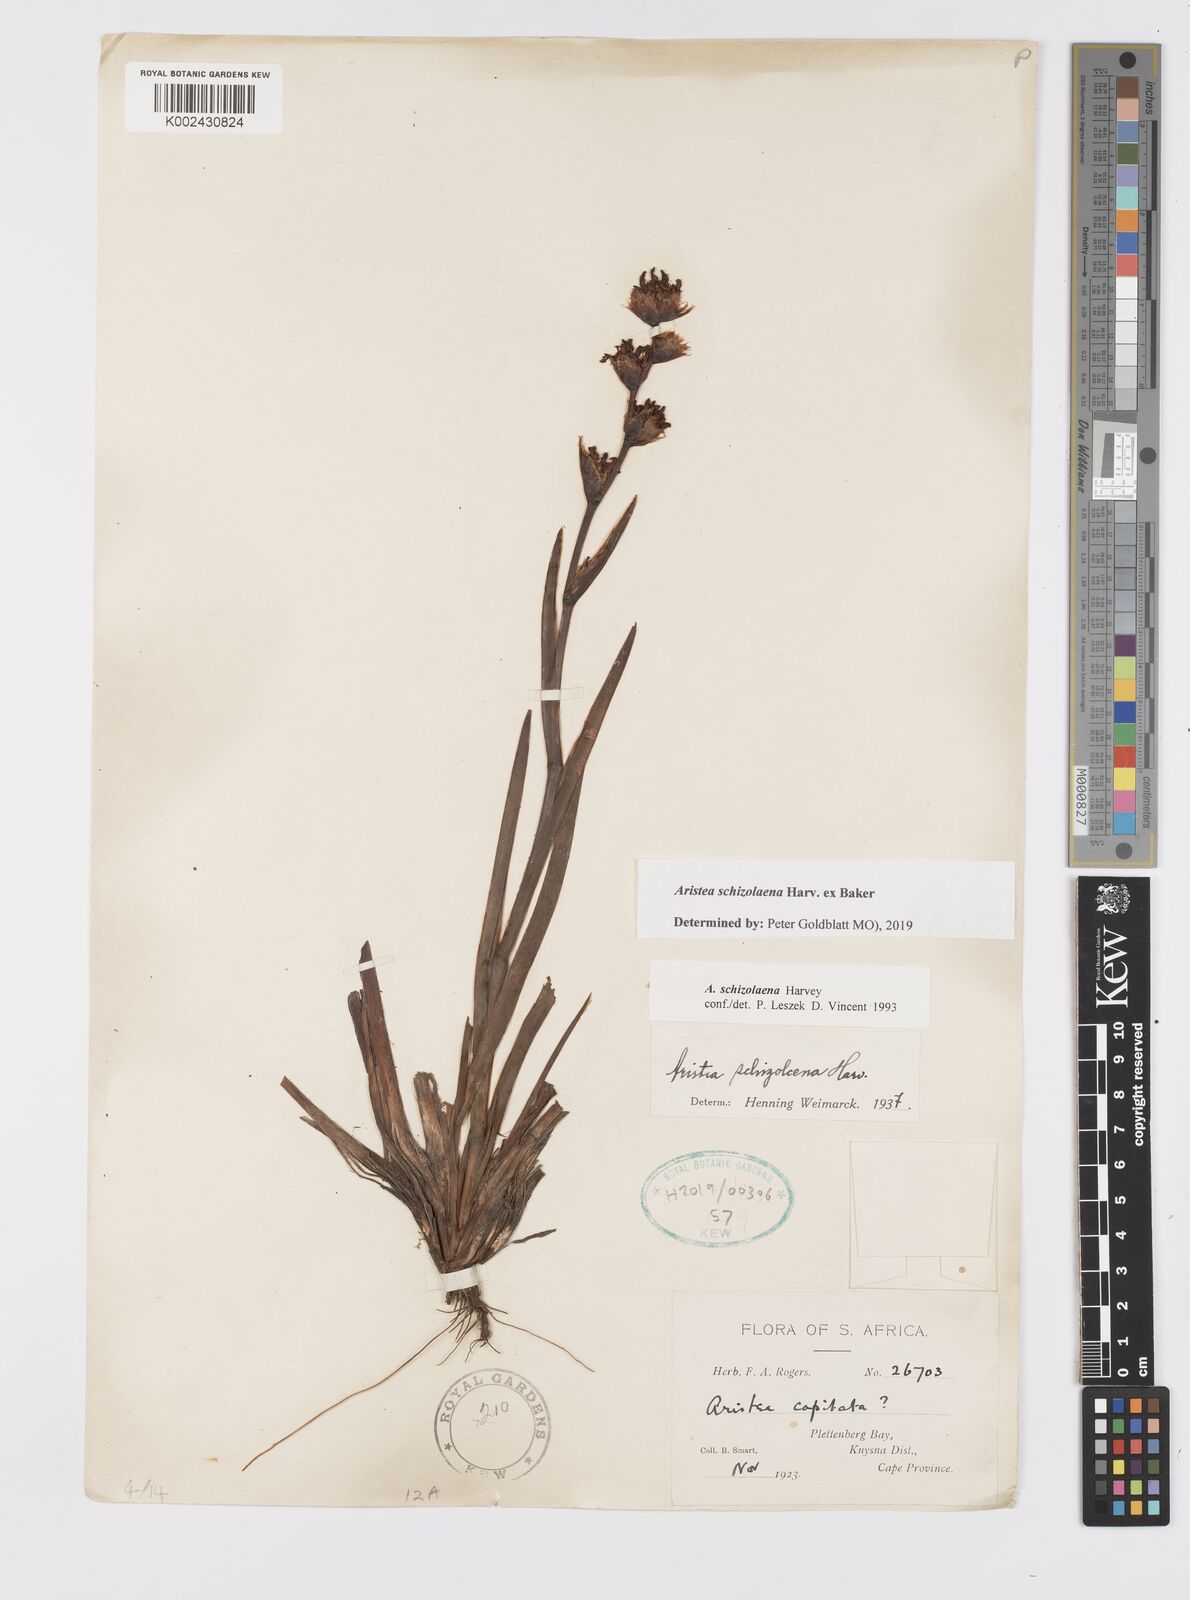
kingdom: Plantae
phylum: Tracheophyta
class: Liliopsida
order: Asparagales
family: Iridaceae
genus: Aristea
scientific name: Aristea schizolaena
